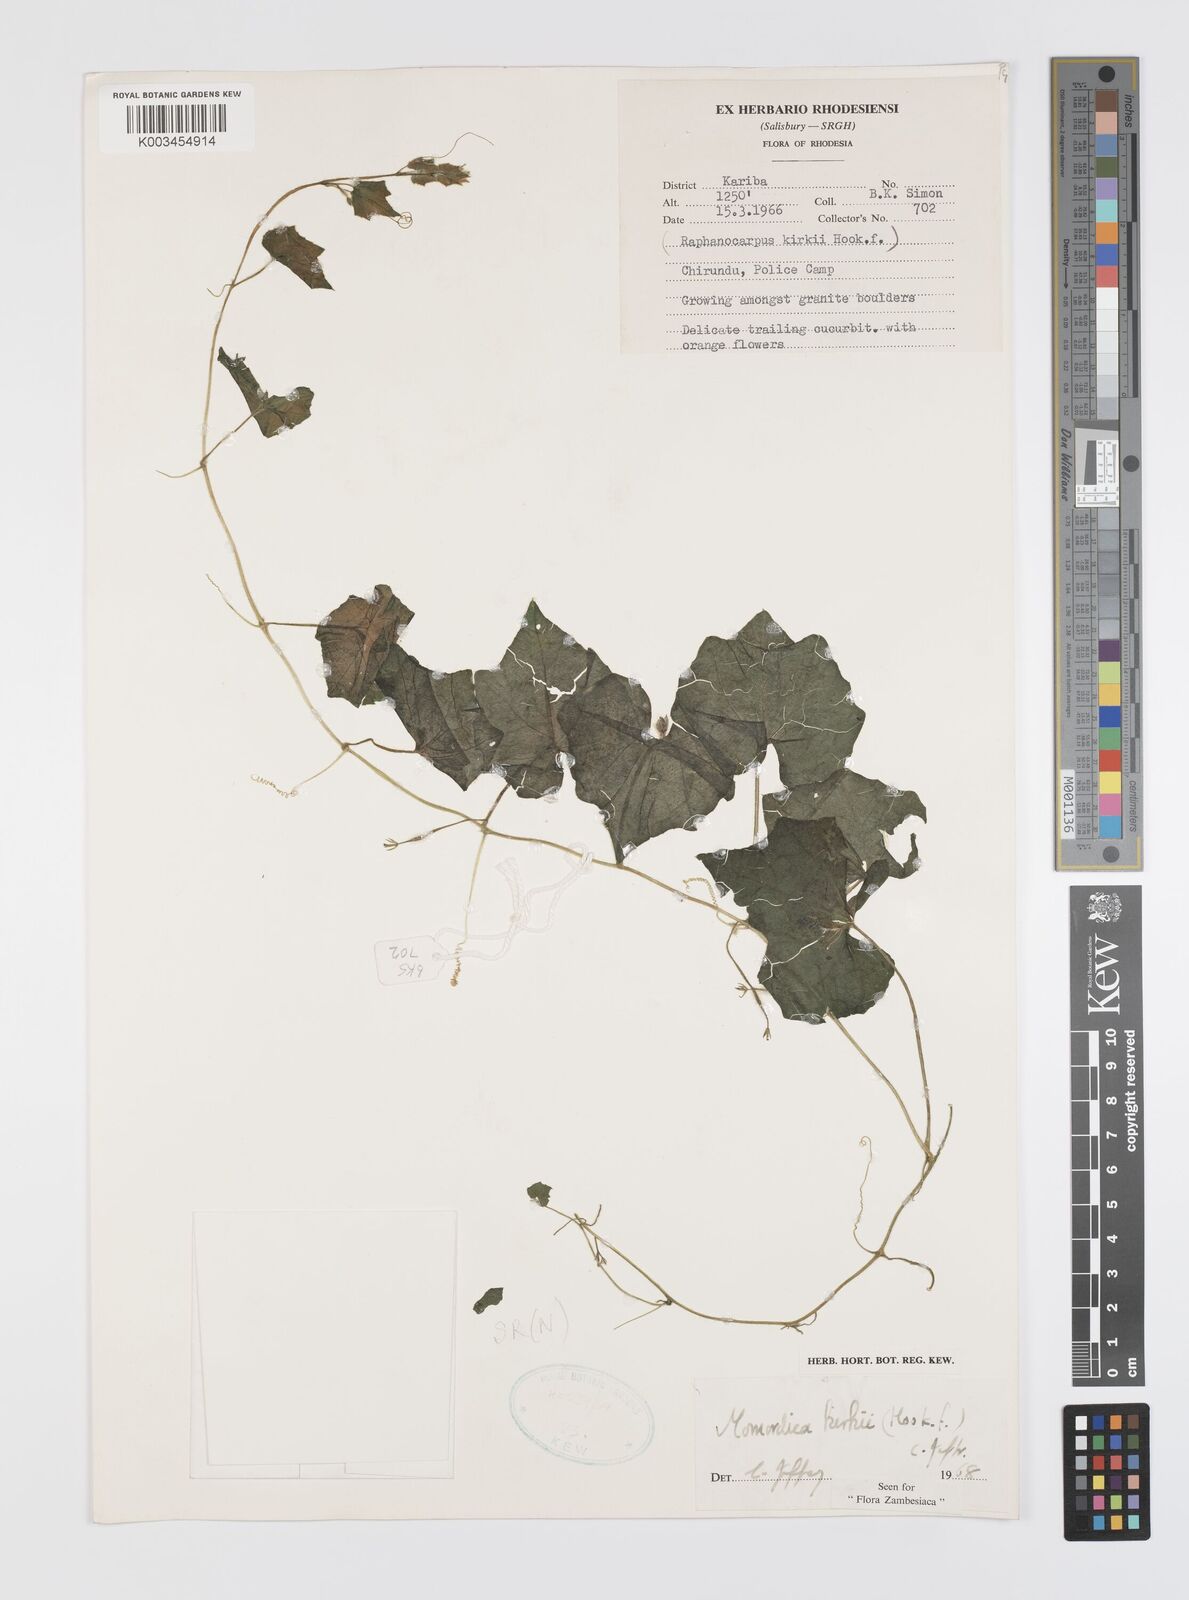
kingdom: Plantae
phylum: Tracheophyta
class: Magnoliopsida
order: Cucurbitales
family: Cucurbitaceae
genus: Momordica
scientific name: Momordica kirkii
